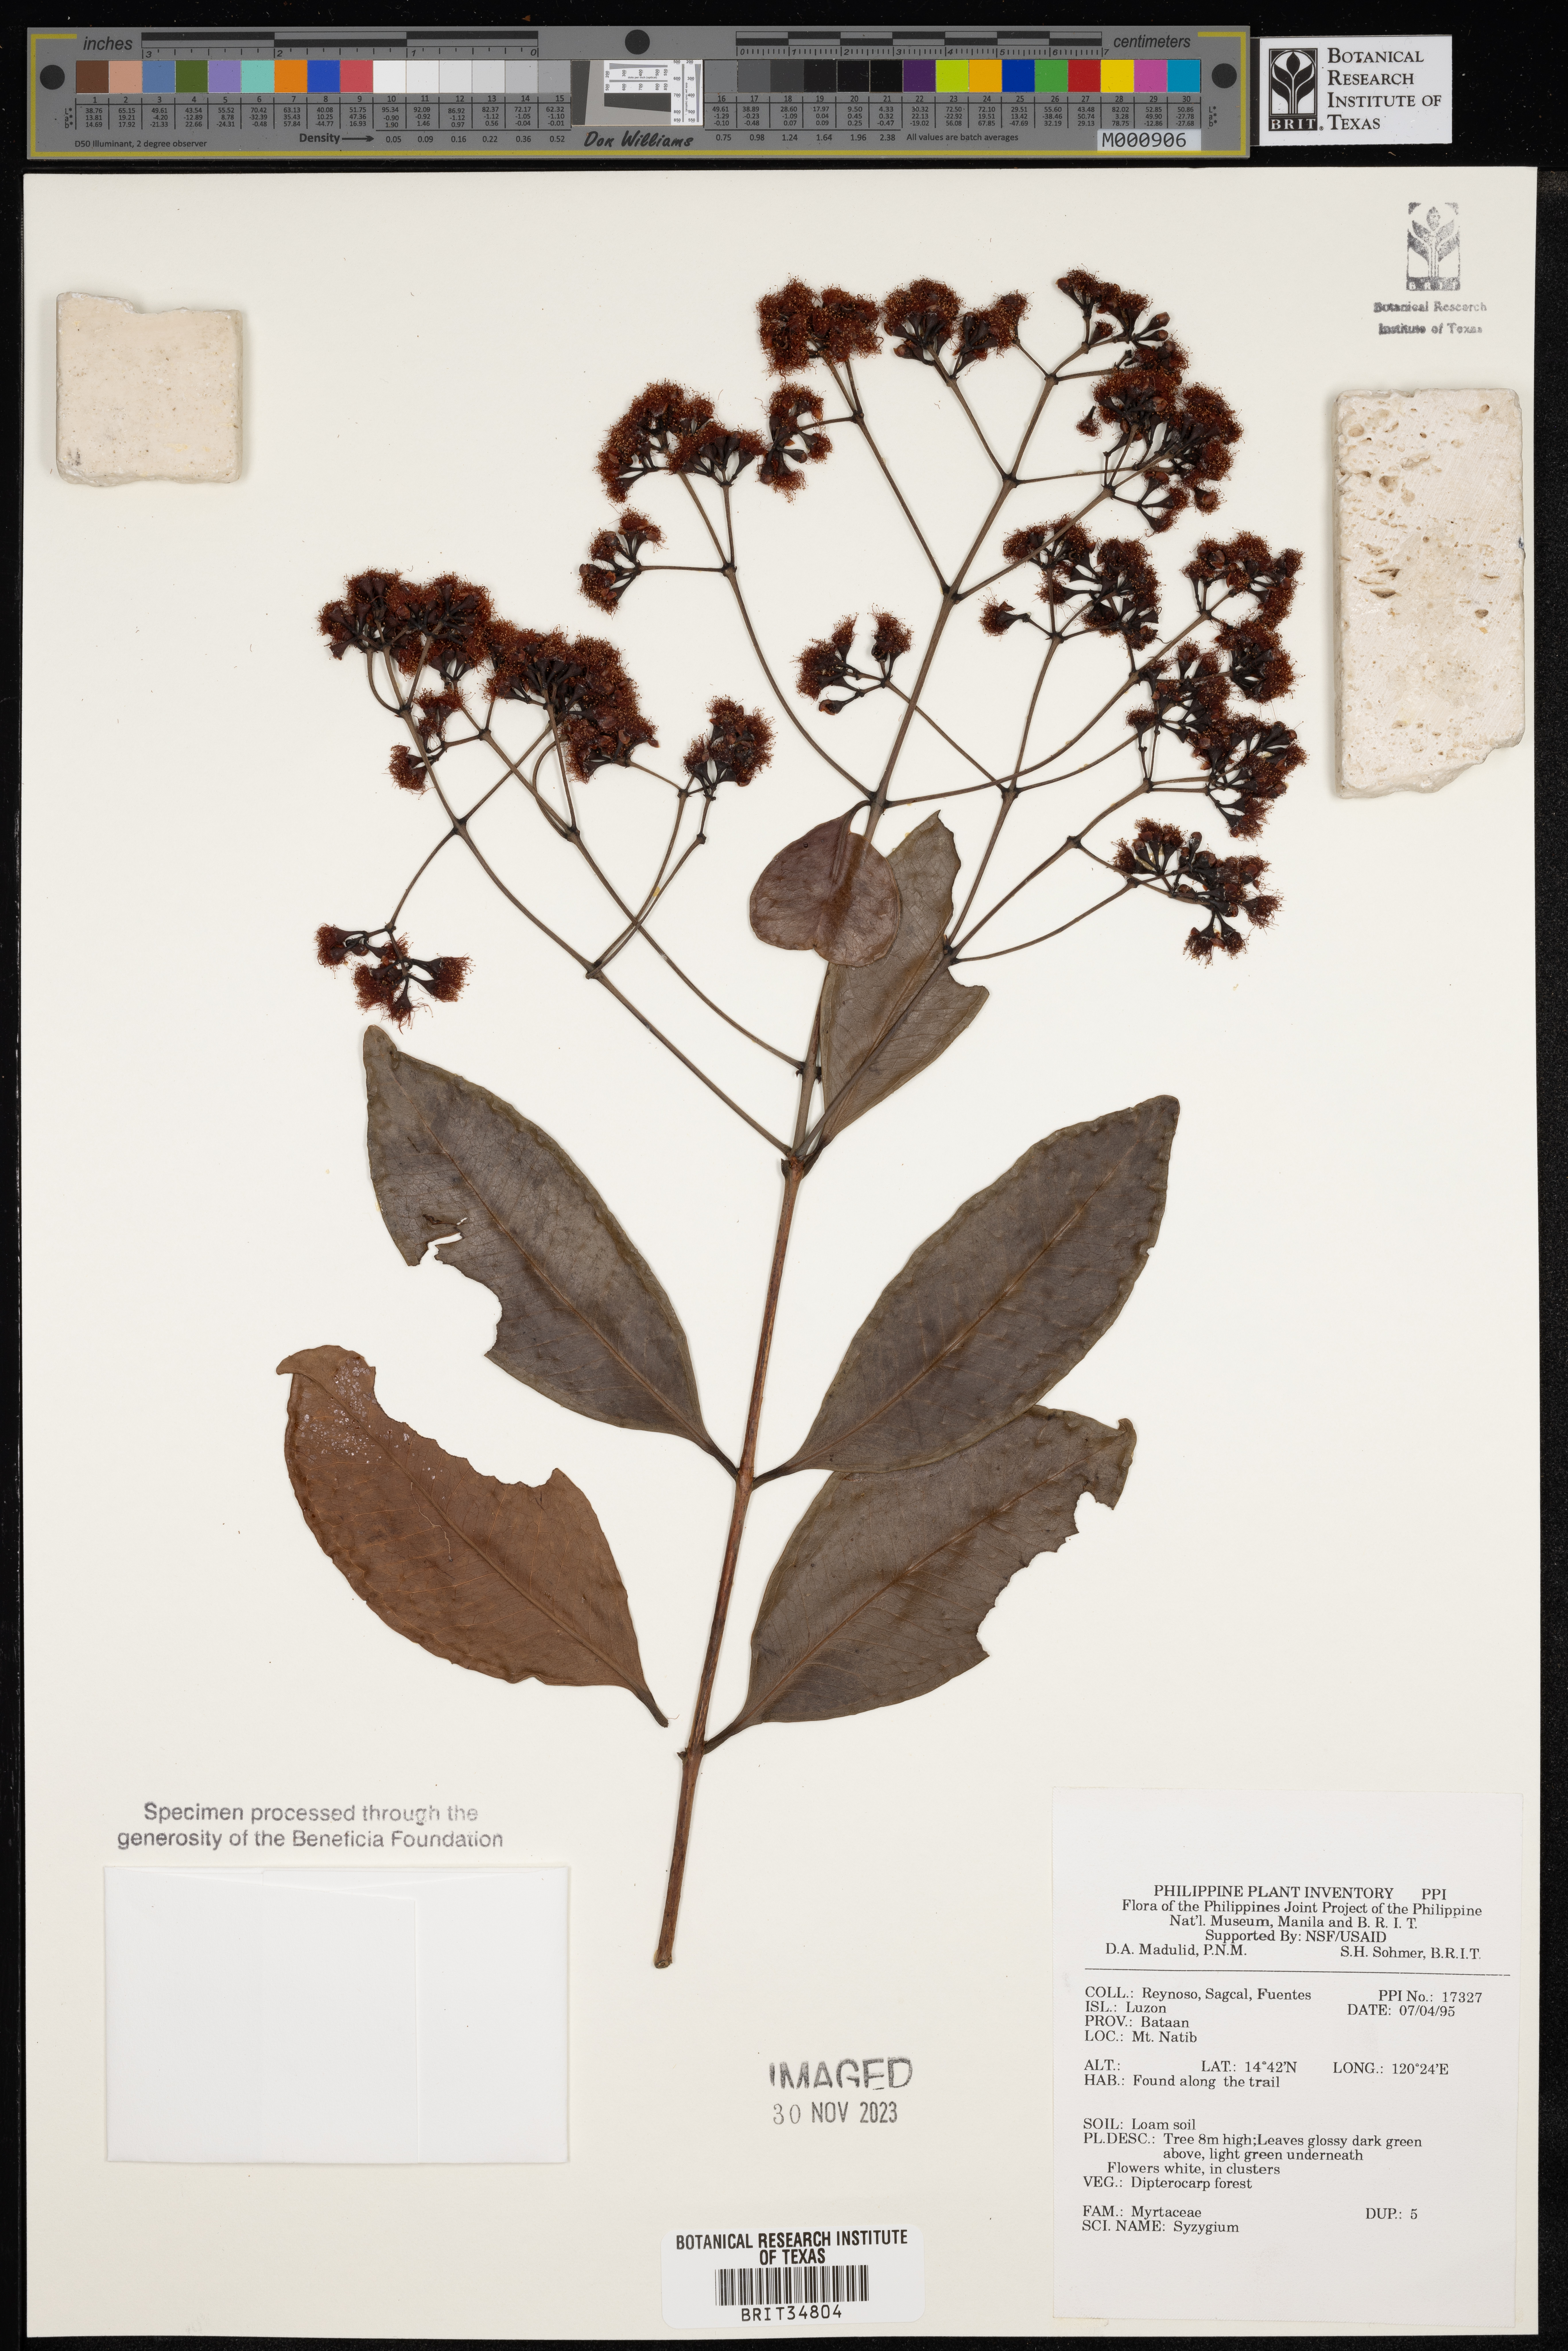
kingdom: Plantae
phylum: Tracheophyta
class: Magnoliopsida
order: Myrtales
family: Myrtaceae
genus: Syzygium
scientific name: Syzygium
